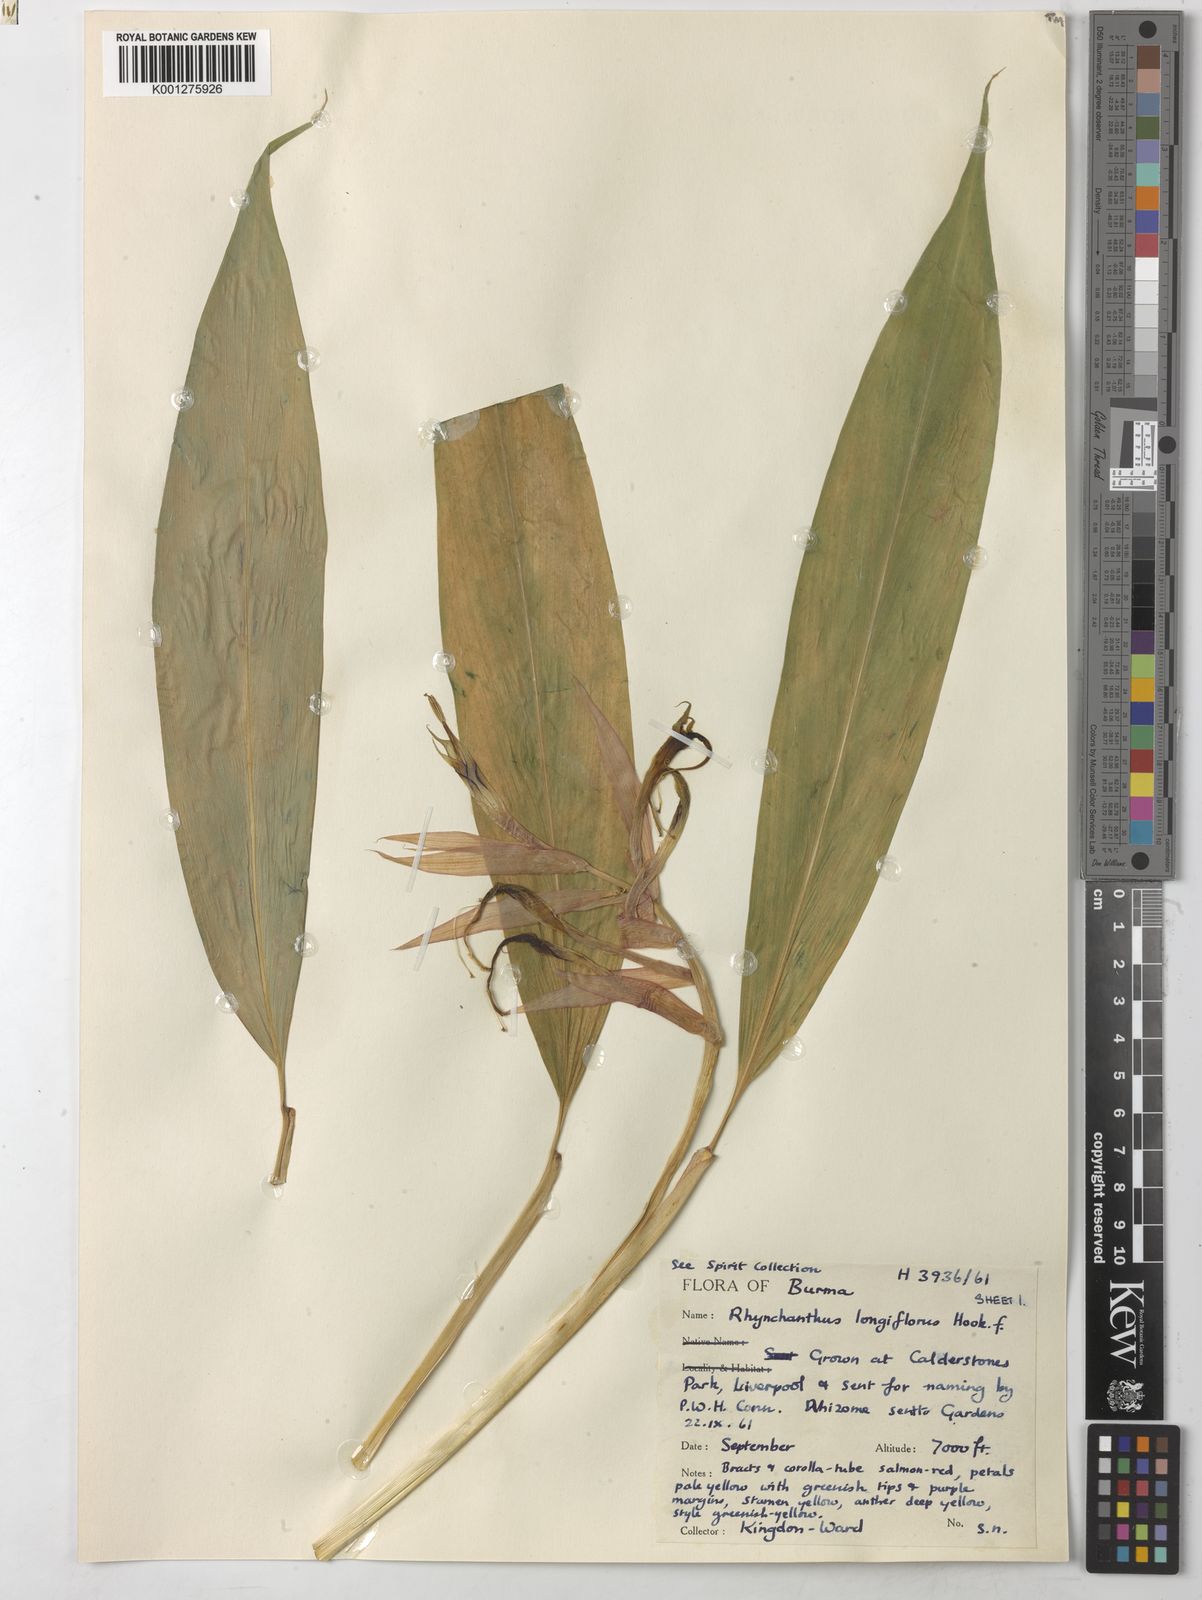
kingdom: Plantae
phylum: Tracheophyta
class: Liliopsida
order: Zingiberales
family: Zingiberaceae
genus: Rhynchanthus
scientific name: Rhynchanthus longiflorus
